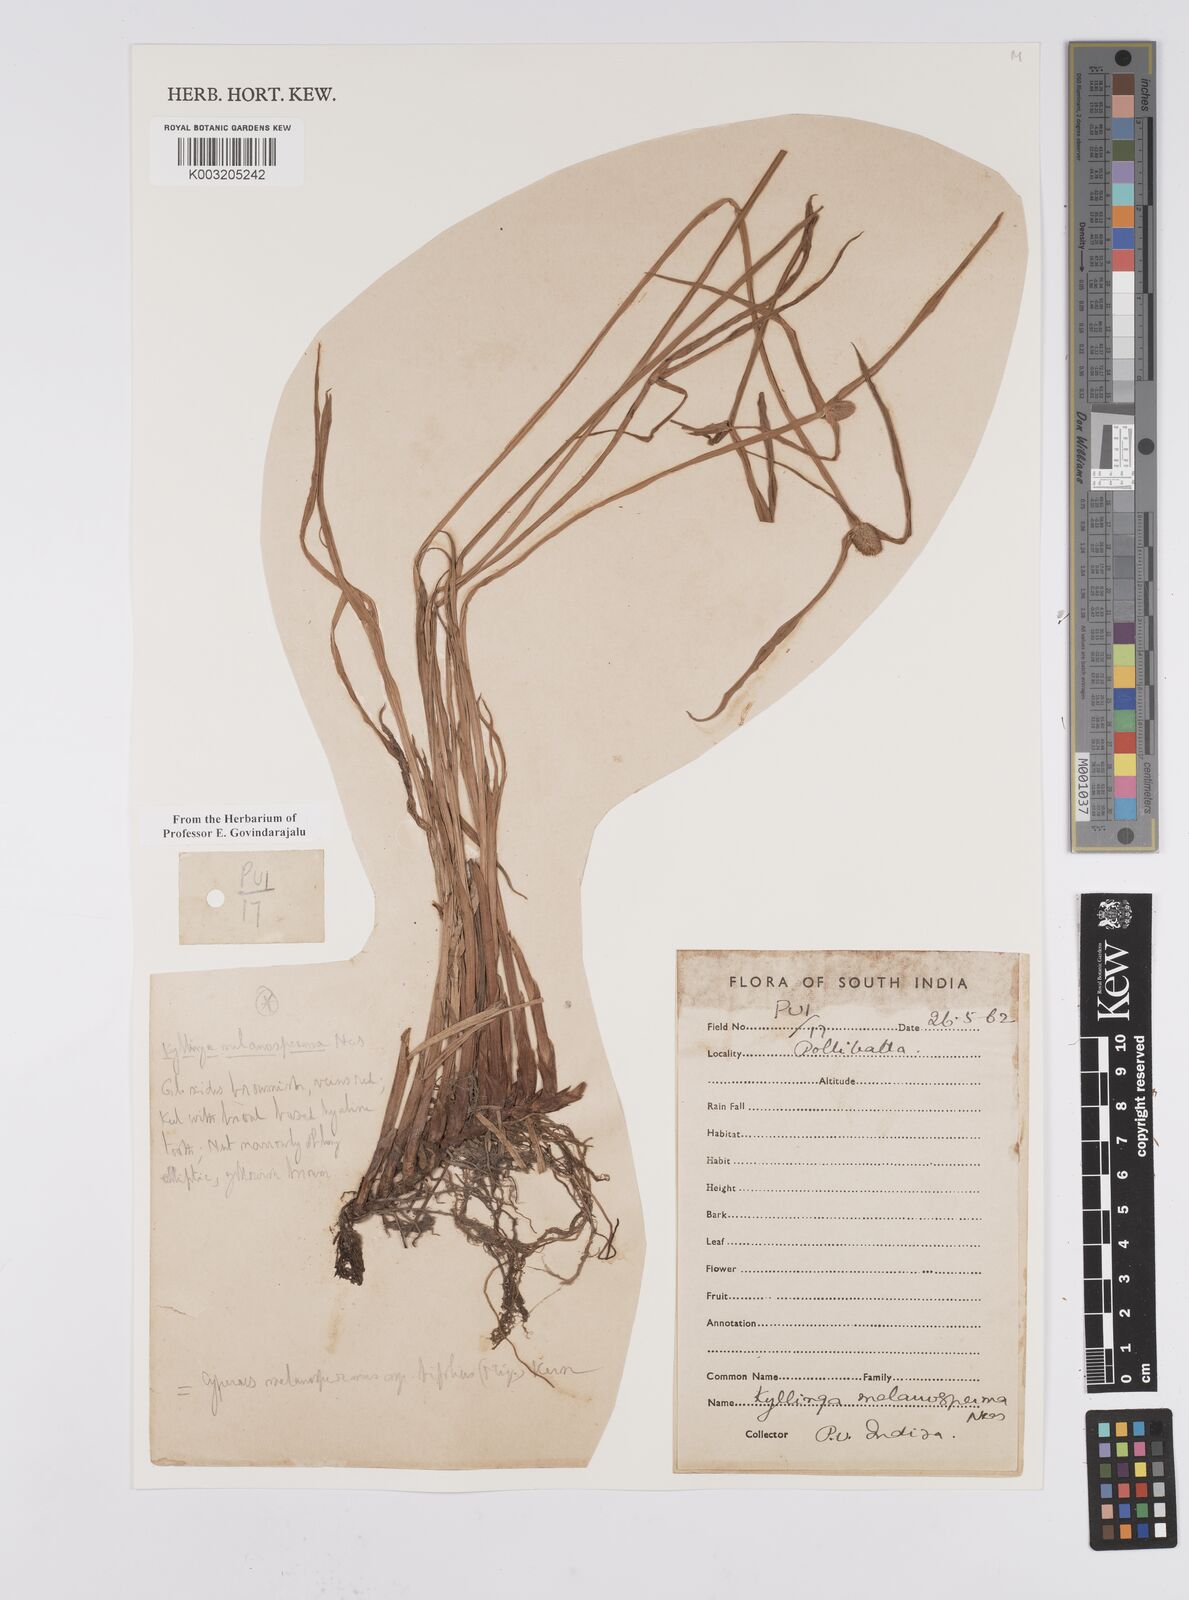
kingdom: Plantae
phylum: Tracheophyta
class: Liliopsida
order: Poales
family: Cyperaceae
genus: Cyperus
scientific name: Cyperus melanospermus
